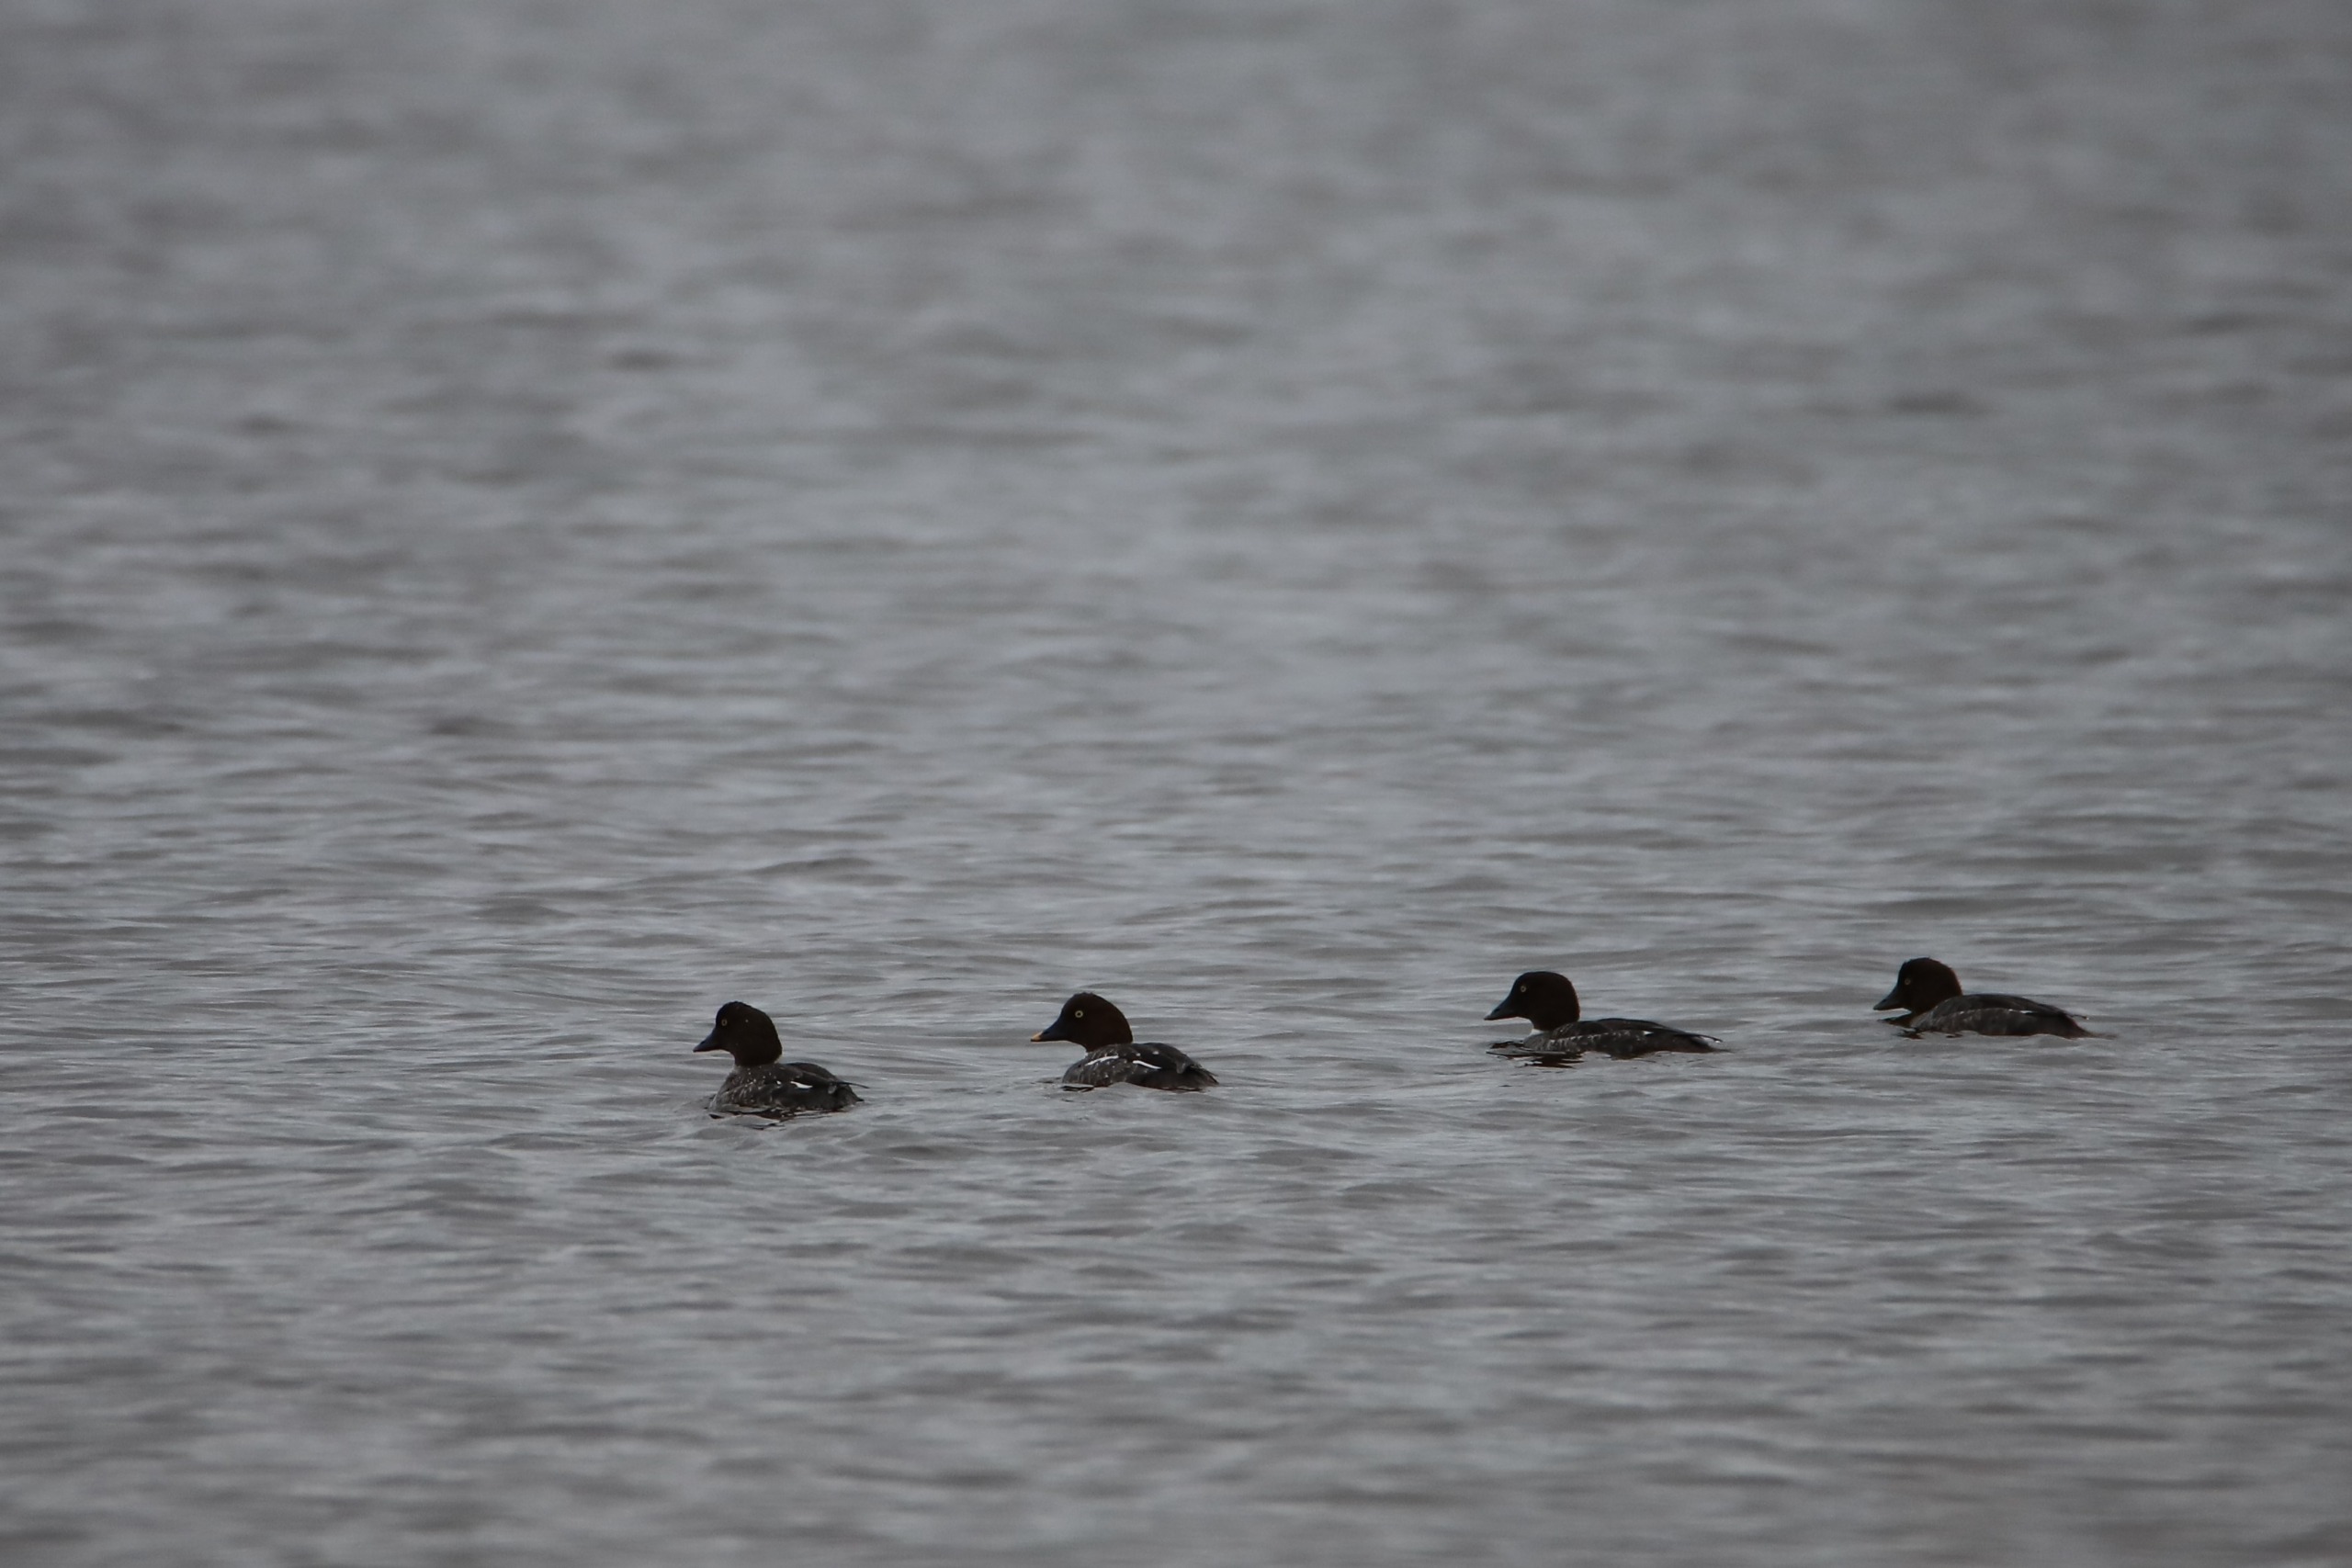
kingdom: Animalia
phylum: Chordata
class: Aves
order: Anseriformes
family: Anatidae
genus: Bucephala
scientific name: Bucephala clangula
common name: Hvinand
